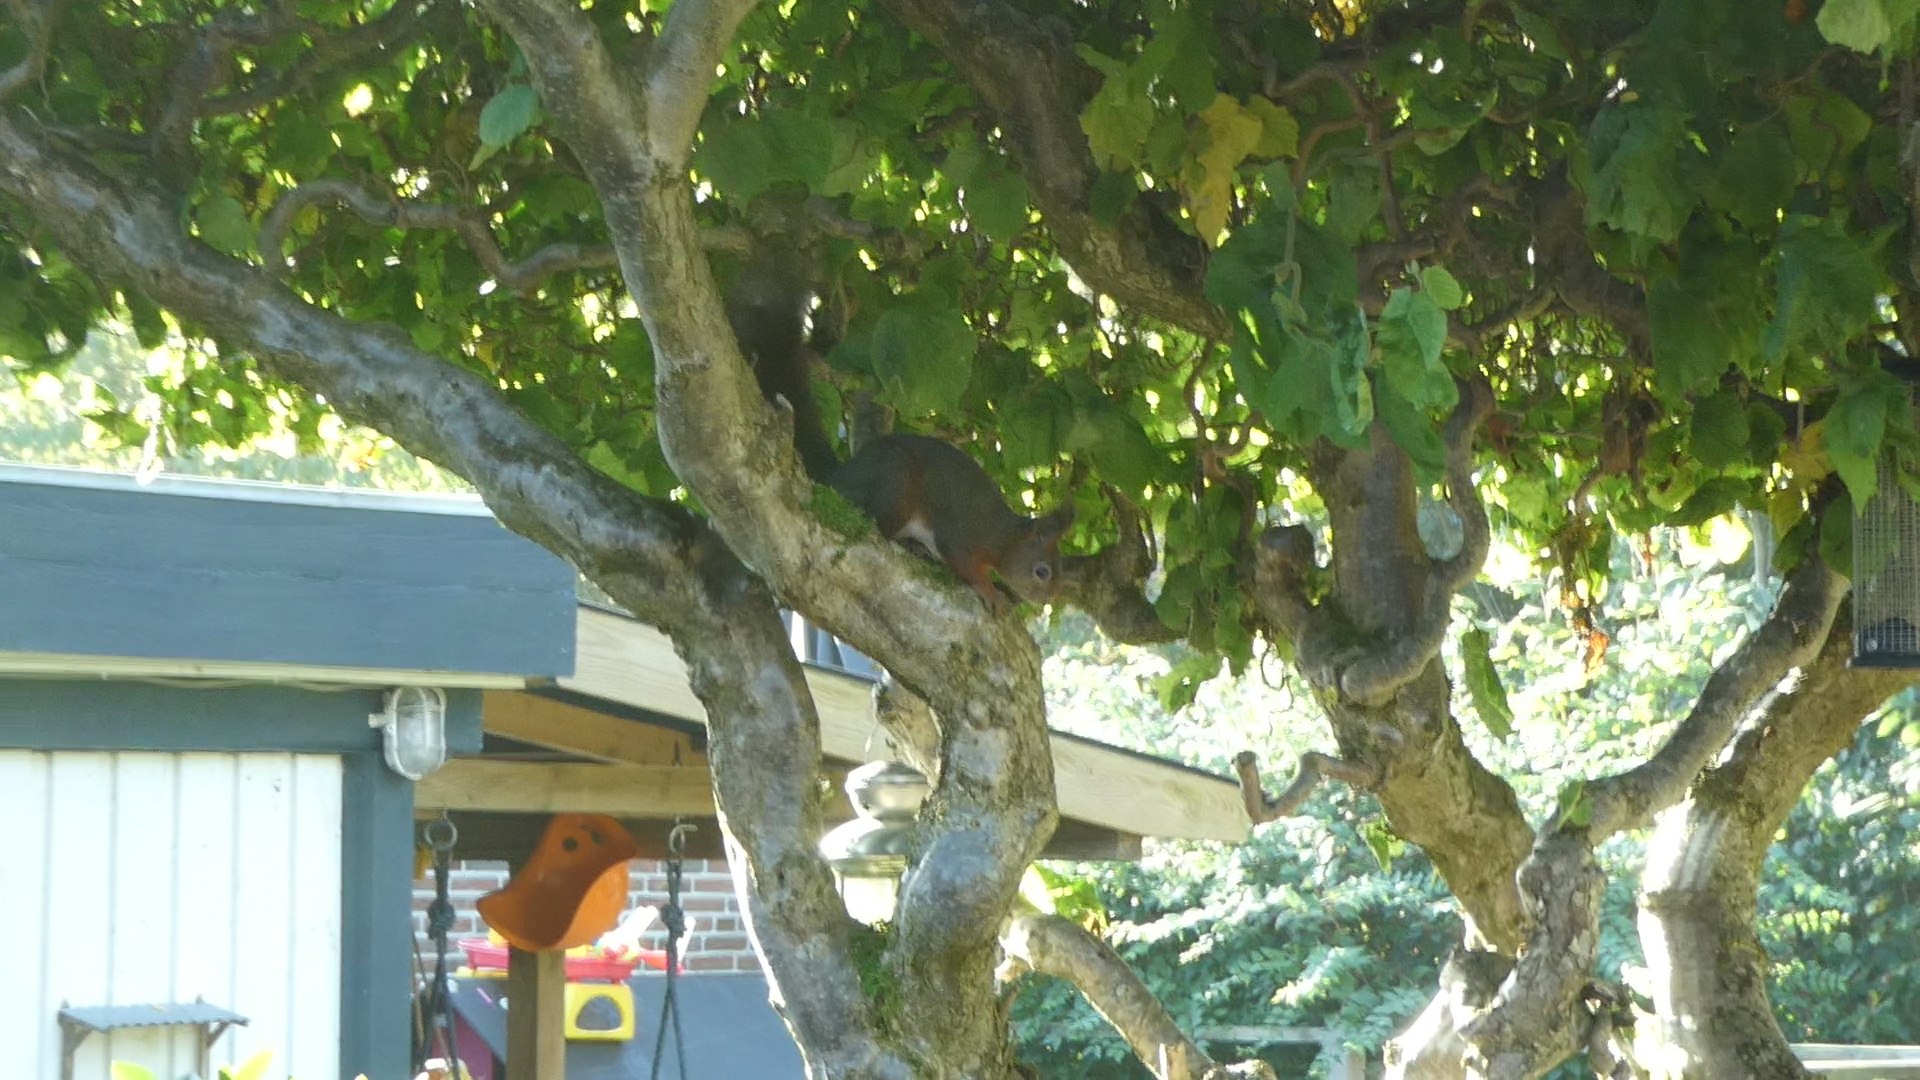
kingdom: Animalia
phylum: Chordata
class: Mammalia
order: Rodentia
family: Sciuridae
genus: Sciurus
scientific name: Sciurus vulgaris
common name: Egern
